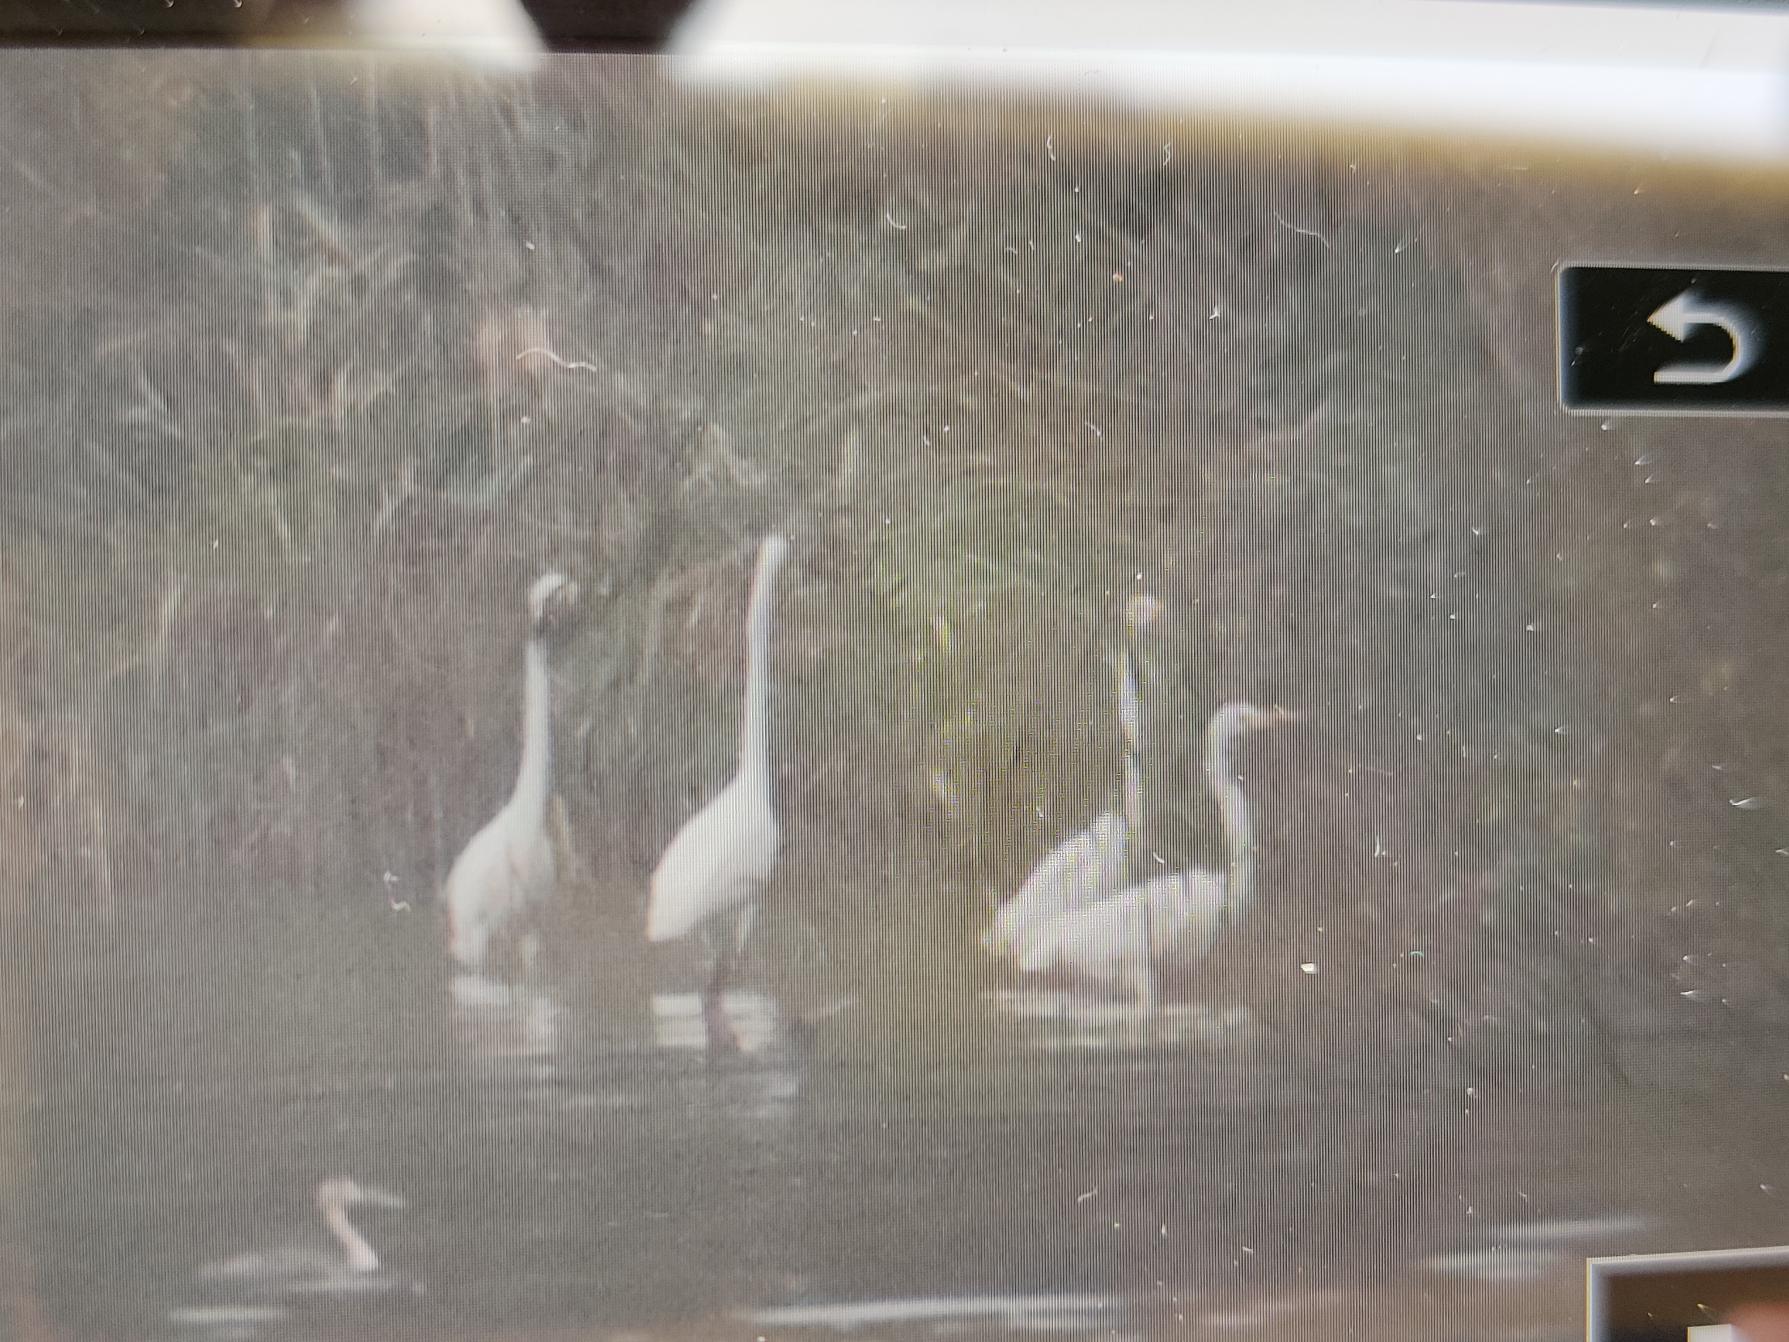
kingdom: Animalia
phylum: Chordata
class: Aves
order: Pelecaniformes
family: Ardeidae
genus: Ardea
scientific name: Ardea alba
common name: Sølvhejre
